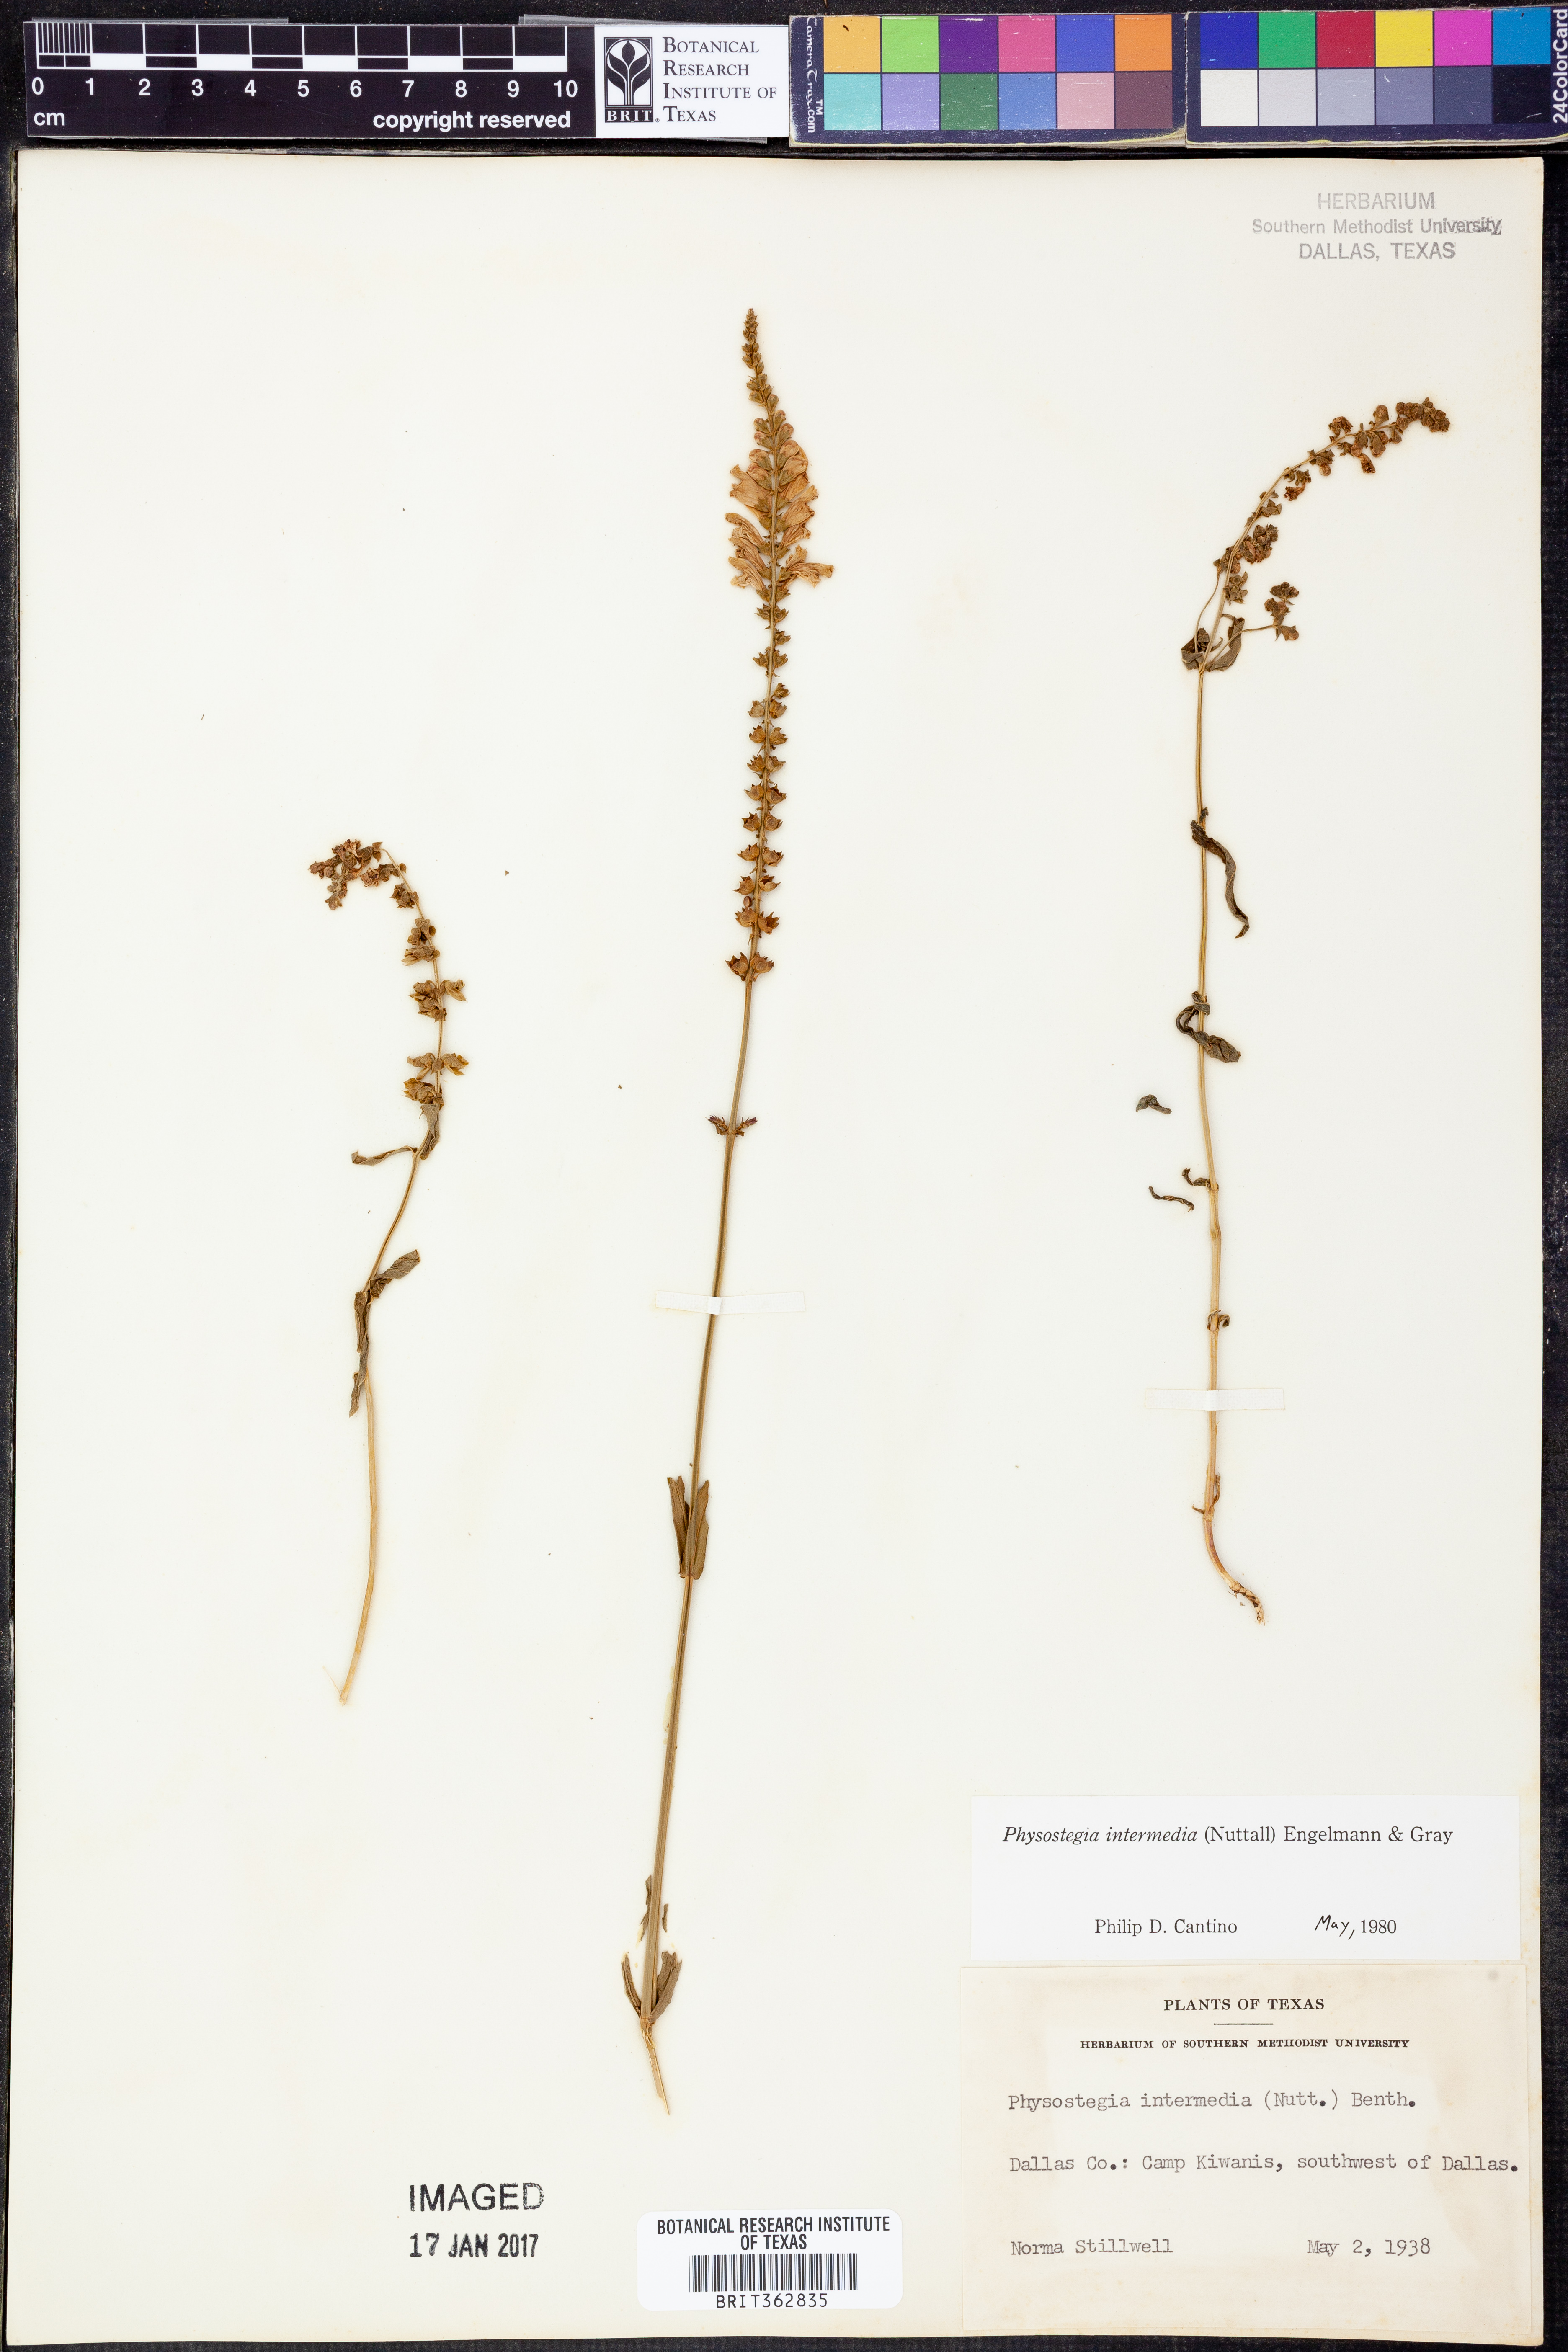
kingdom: Plantae
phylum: Tracheophyta
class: Magnoliopsida
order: Lamiales
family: Lamiaceae
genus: Physostegia
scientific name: Physostegia intermedia
